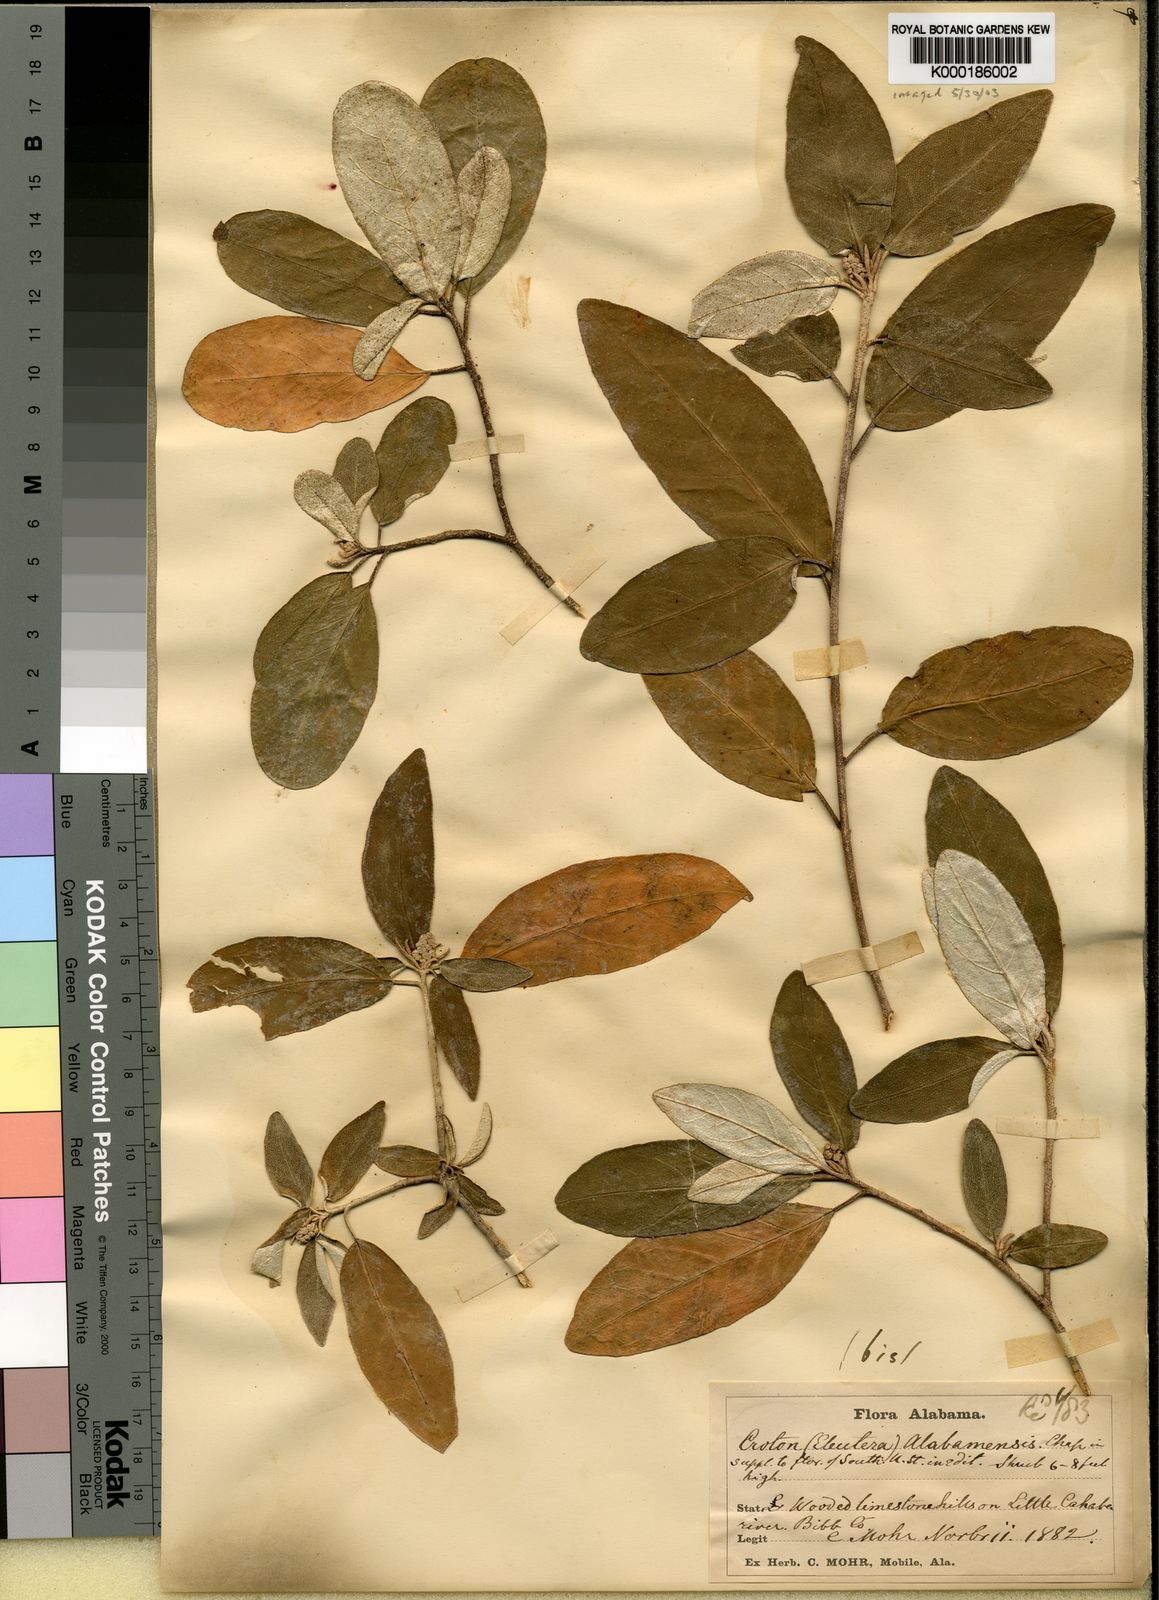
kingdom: Plantae
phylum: Tracheophyta
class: Magnoliopsida
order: Malpighiales
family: Euphorbiaceae
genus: Croton
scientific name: Croton alabamensis
